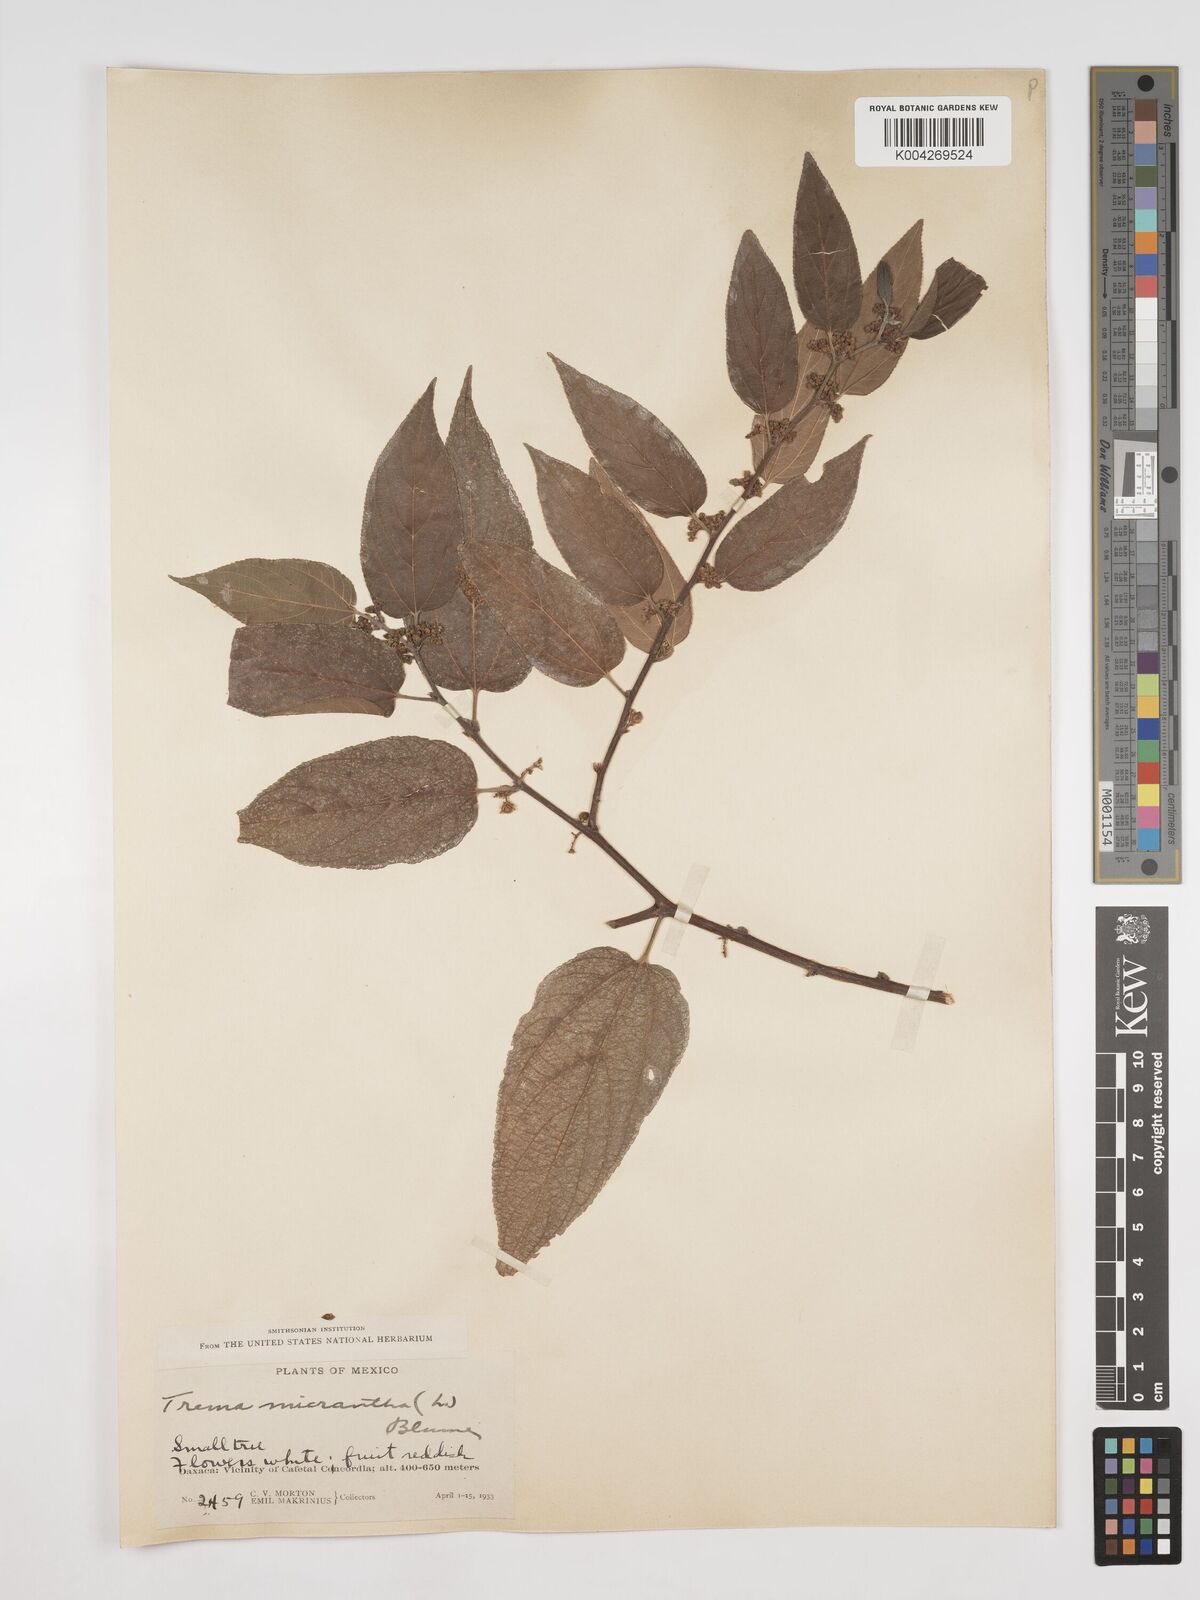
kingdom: Plantae
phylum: Tracheophyta
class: Magnoliopsida
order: Rosales
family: Cannabaceae
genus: Trema
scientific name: Trema micranthum
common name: Jamaican nettletree
